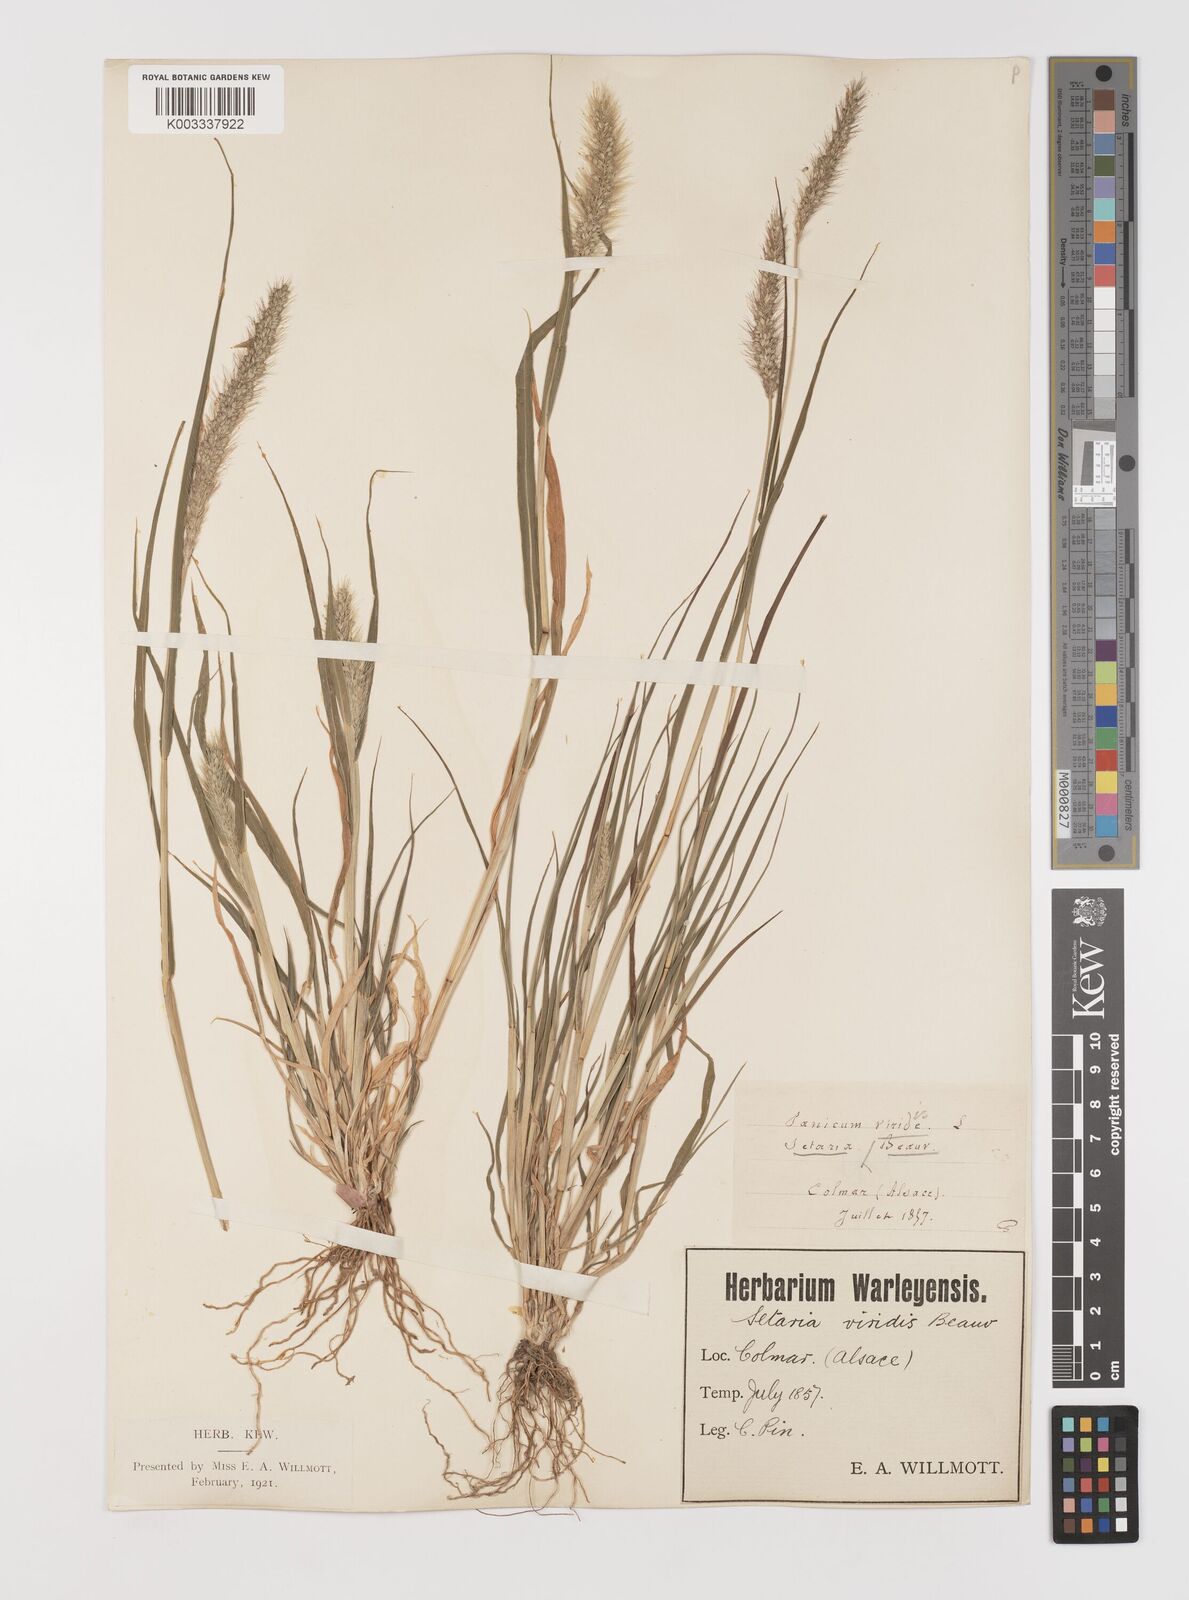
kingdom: Plantae
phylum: Tracheophyta
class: Liliopsida
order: Poales
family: Poaceae
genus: Setaria
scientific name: Setaria viridis
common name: Green bristlegrass
